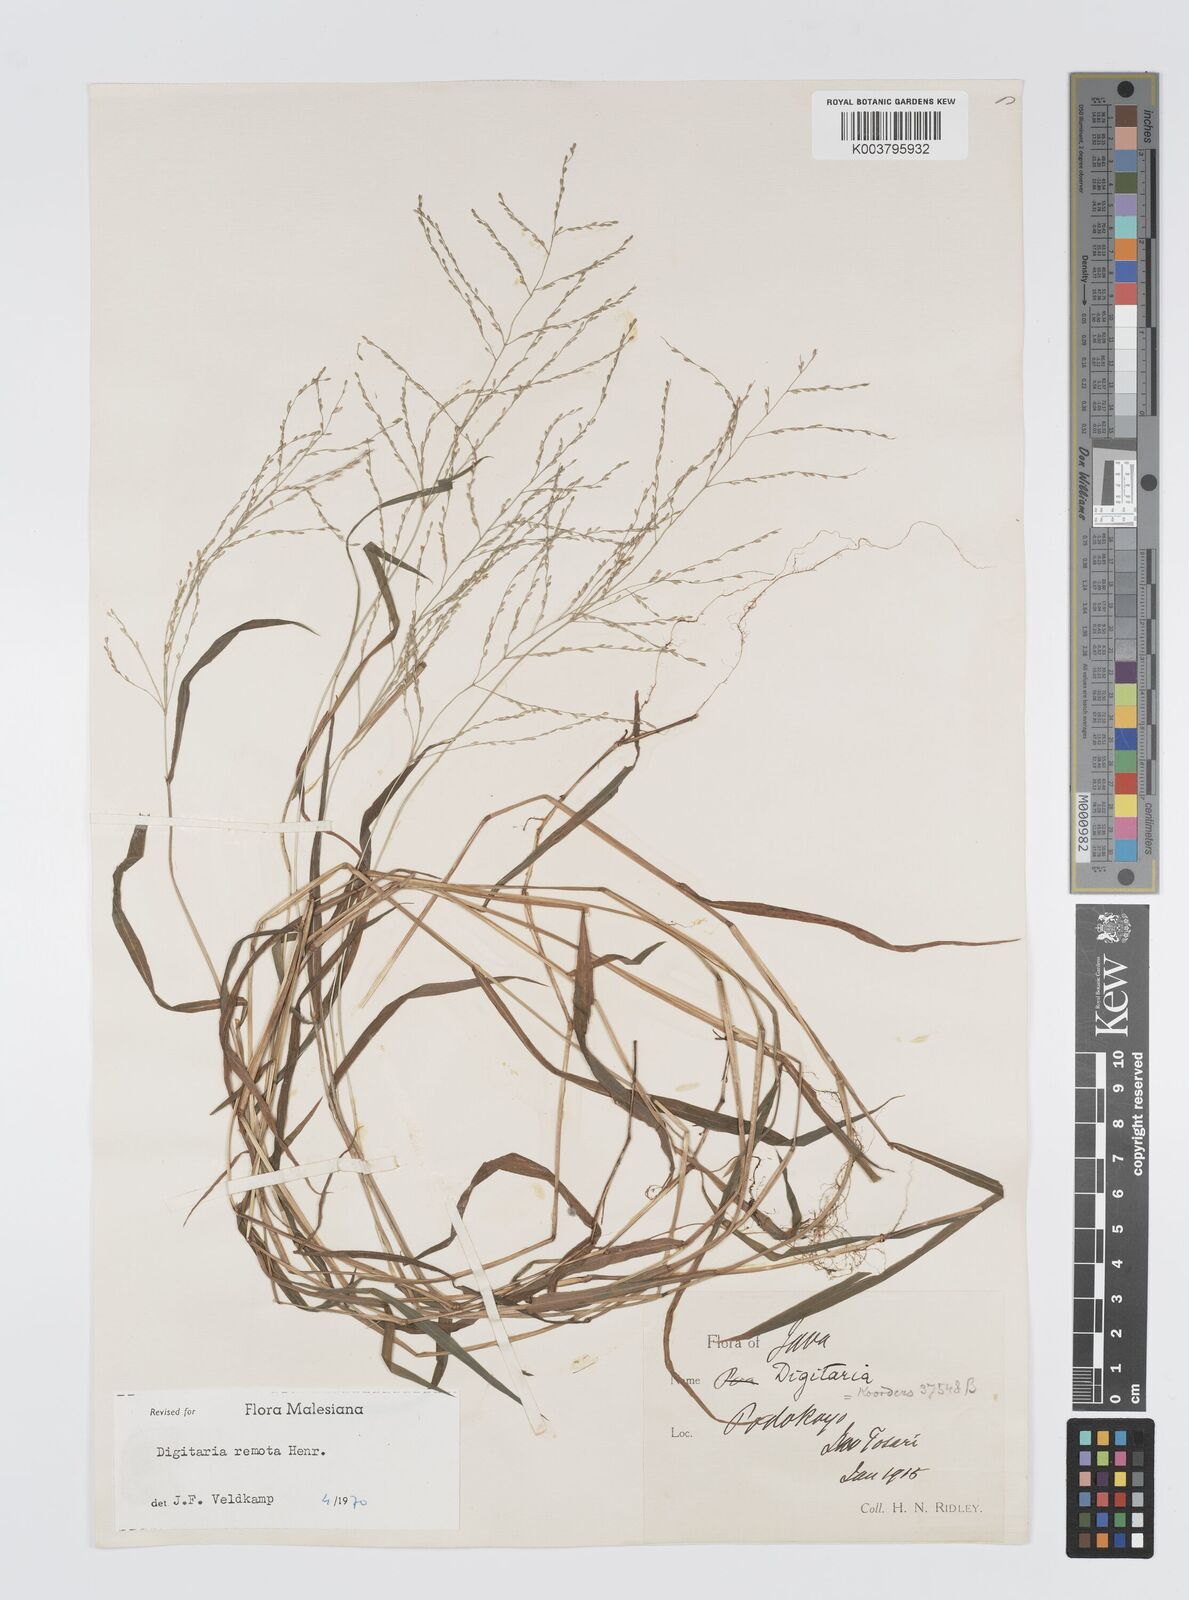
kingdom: Plantae
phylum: Tracheophyta
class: Liliopsida
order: Poales
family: Poaceae
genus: Digitaria
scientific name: Digitaria wallichiana
